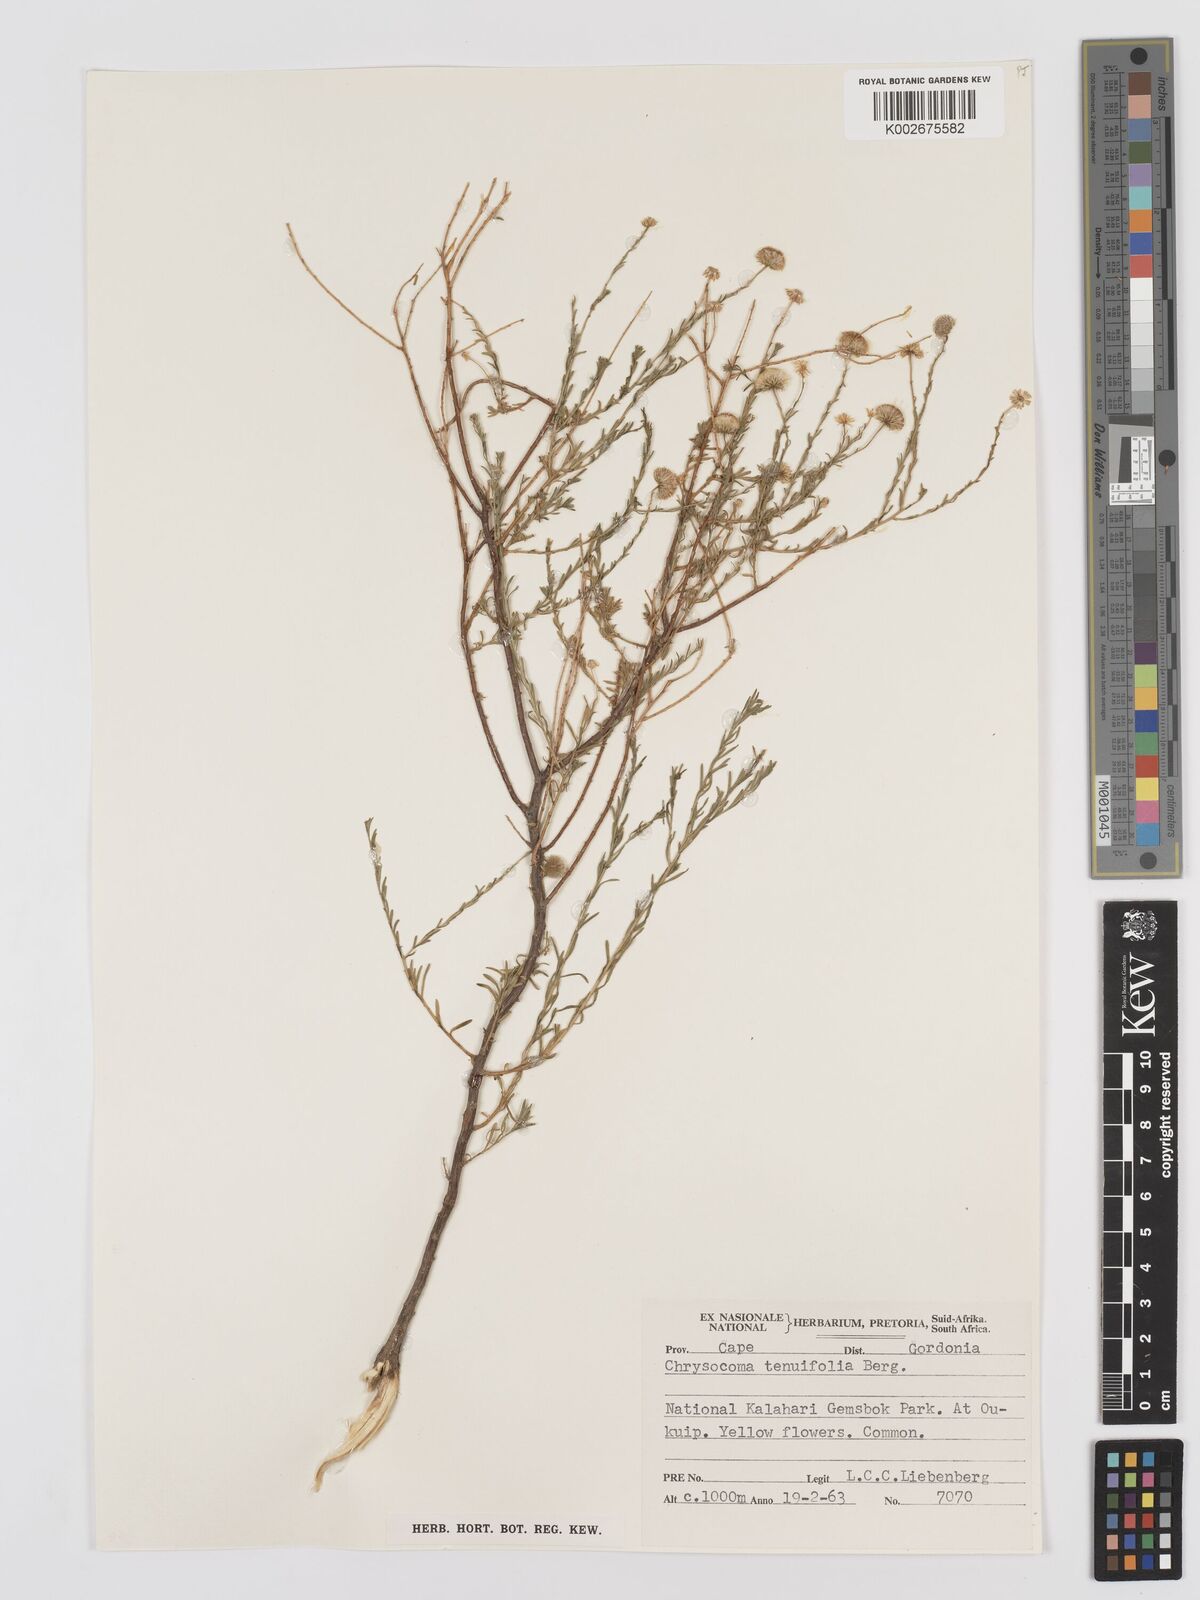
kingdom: Plantae
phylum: Tracheophyta
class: Magnoliopsida
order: Asterales
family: Asteraceae
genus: Chrysocoma
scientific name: Chrysocoma ciliata
